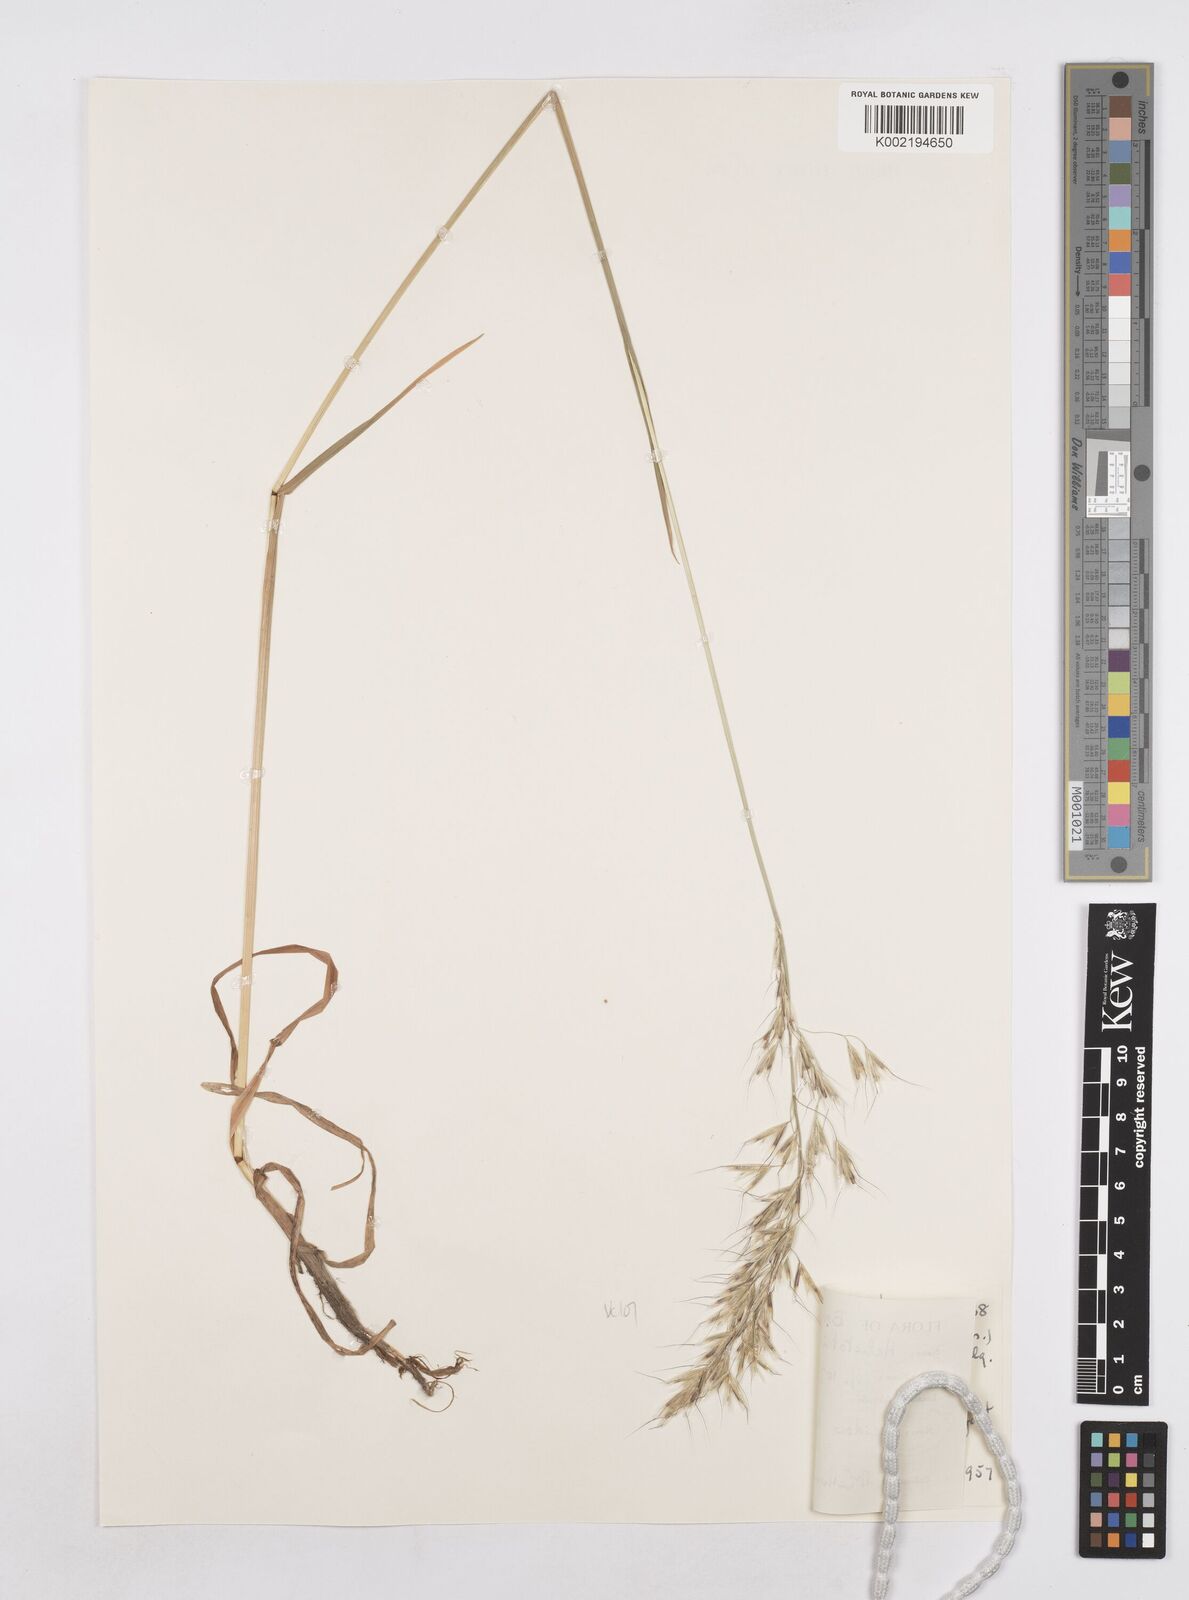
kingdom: Plantae
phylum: Tracheophyta
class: Liliopsida
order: Poales
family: Poaceae
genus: Avenula
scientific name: Avenula pubescens
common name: Downy alpine oatgrass
